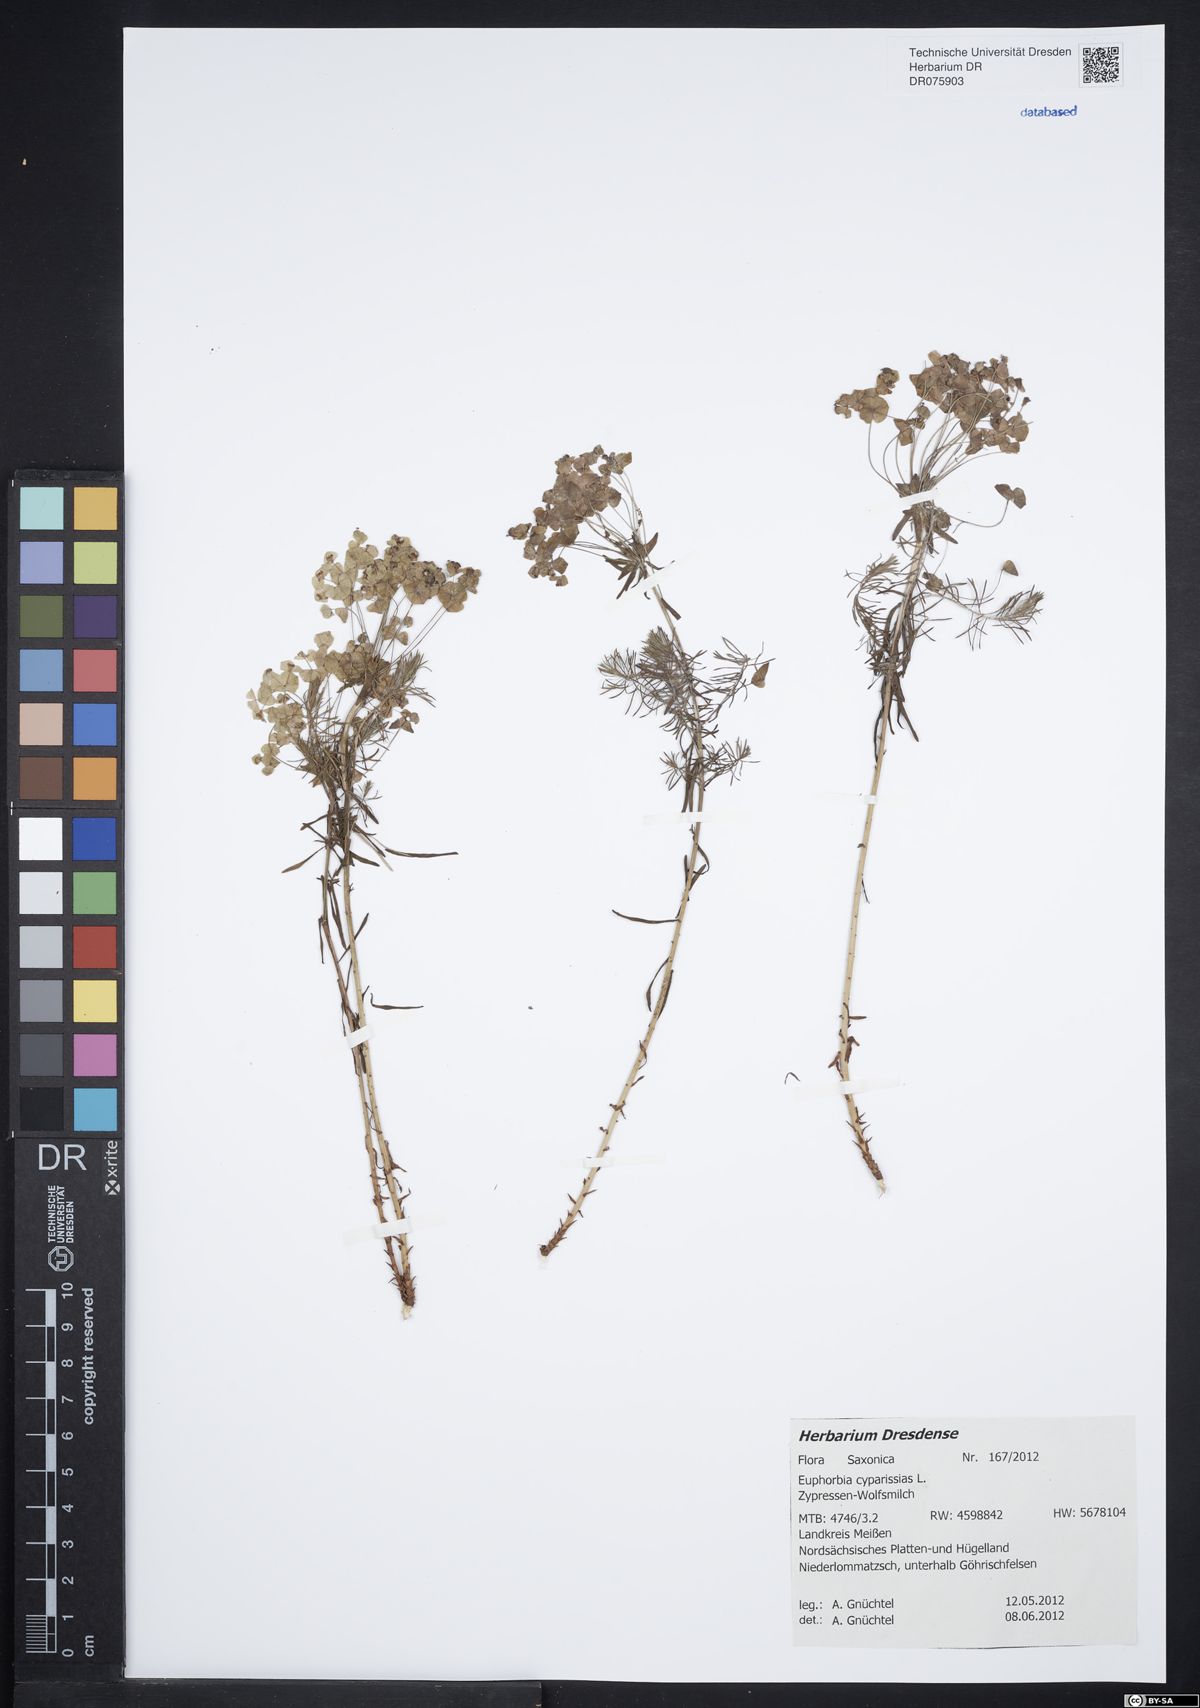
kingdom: Plantae
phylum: Tracheophyta
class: Magnoliopsida
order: Malpighiales
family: Euphorbiaceae
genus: Euphorbia
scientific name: Euphorbia cyparissias
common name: Cypress spurge
